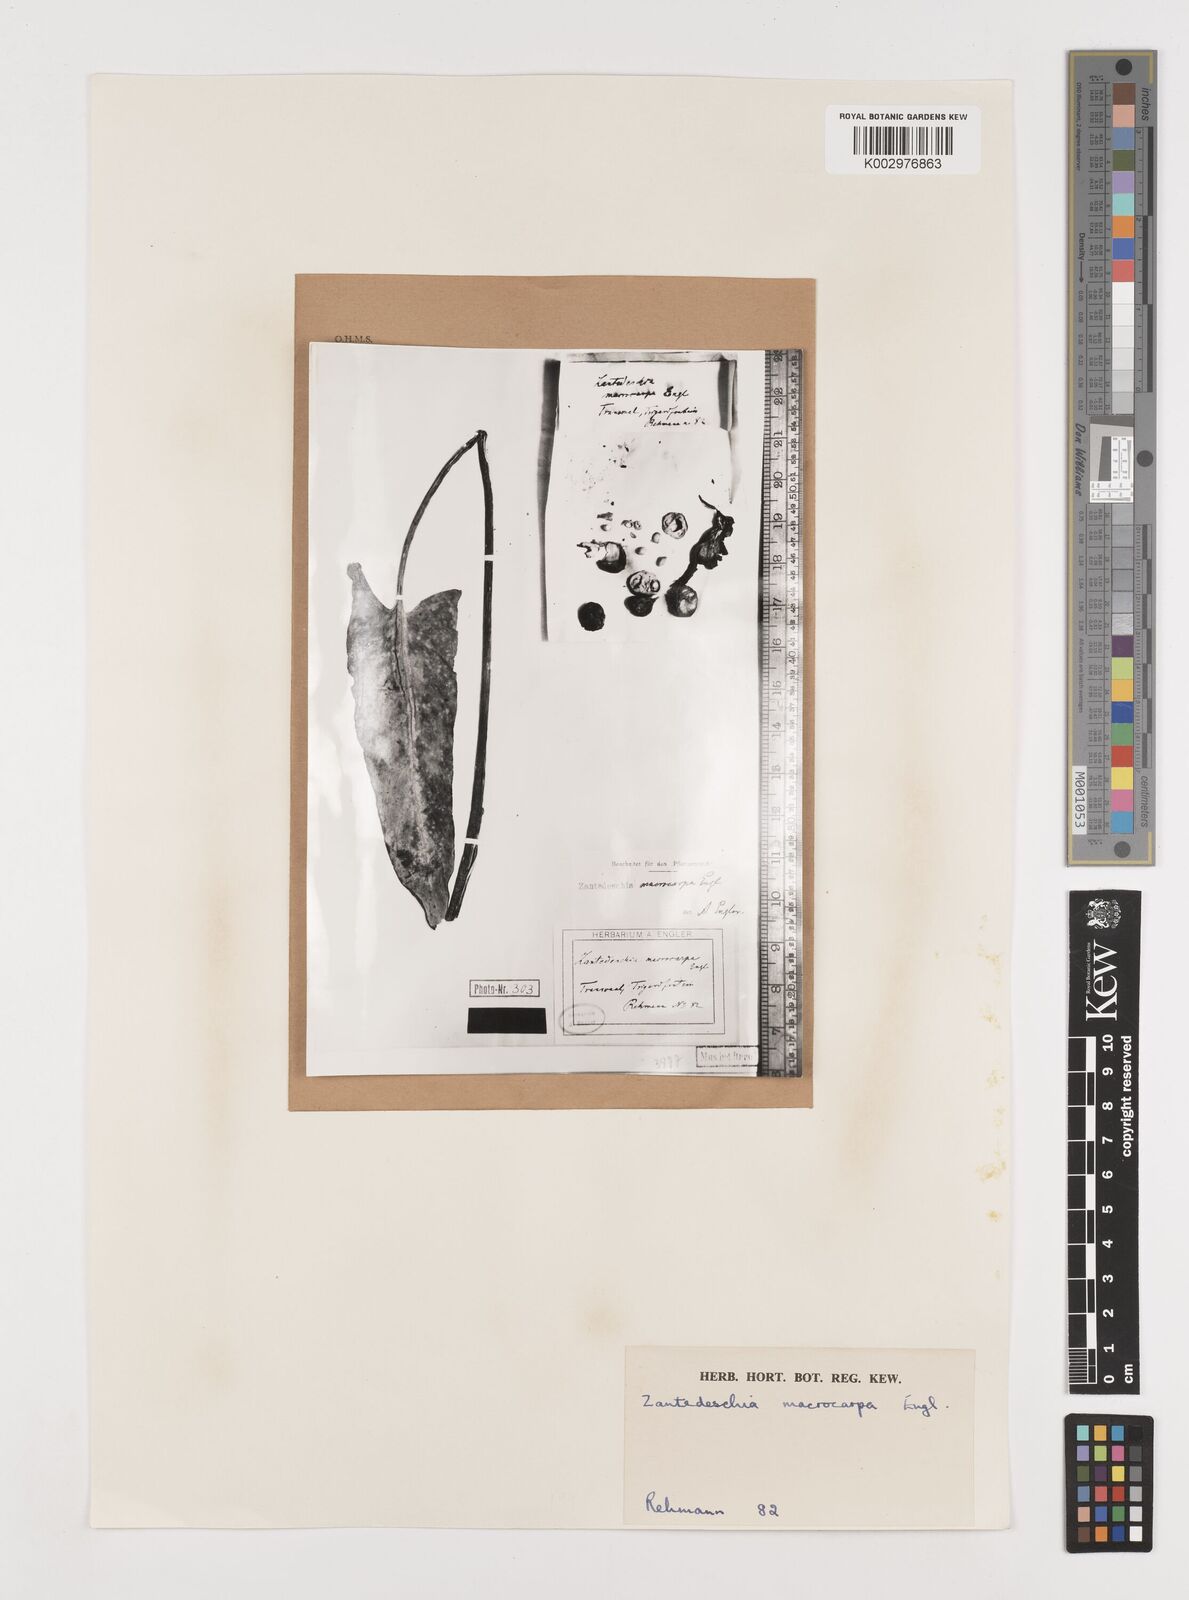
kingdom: Plantae
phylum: Tracheophyta
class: Liliopsida
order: Alismatales
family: Araceae
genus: Zantedeschia
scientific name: Zantedeschia albomaculata
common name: Spotted calla lily
